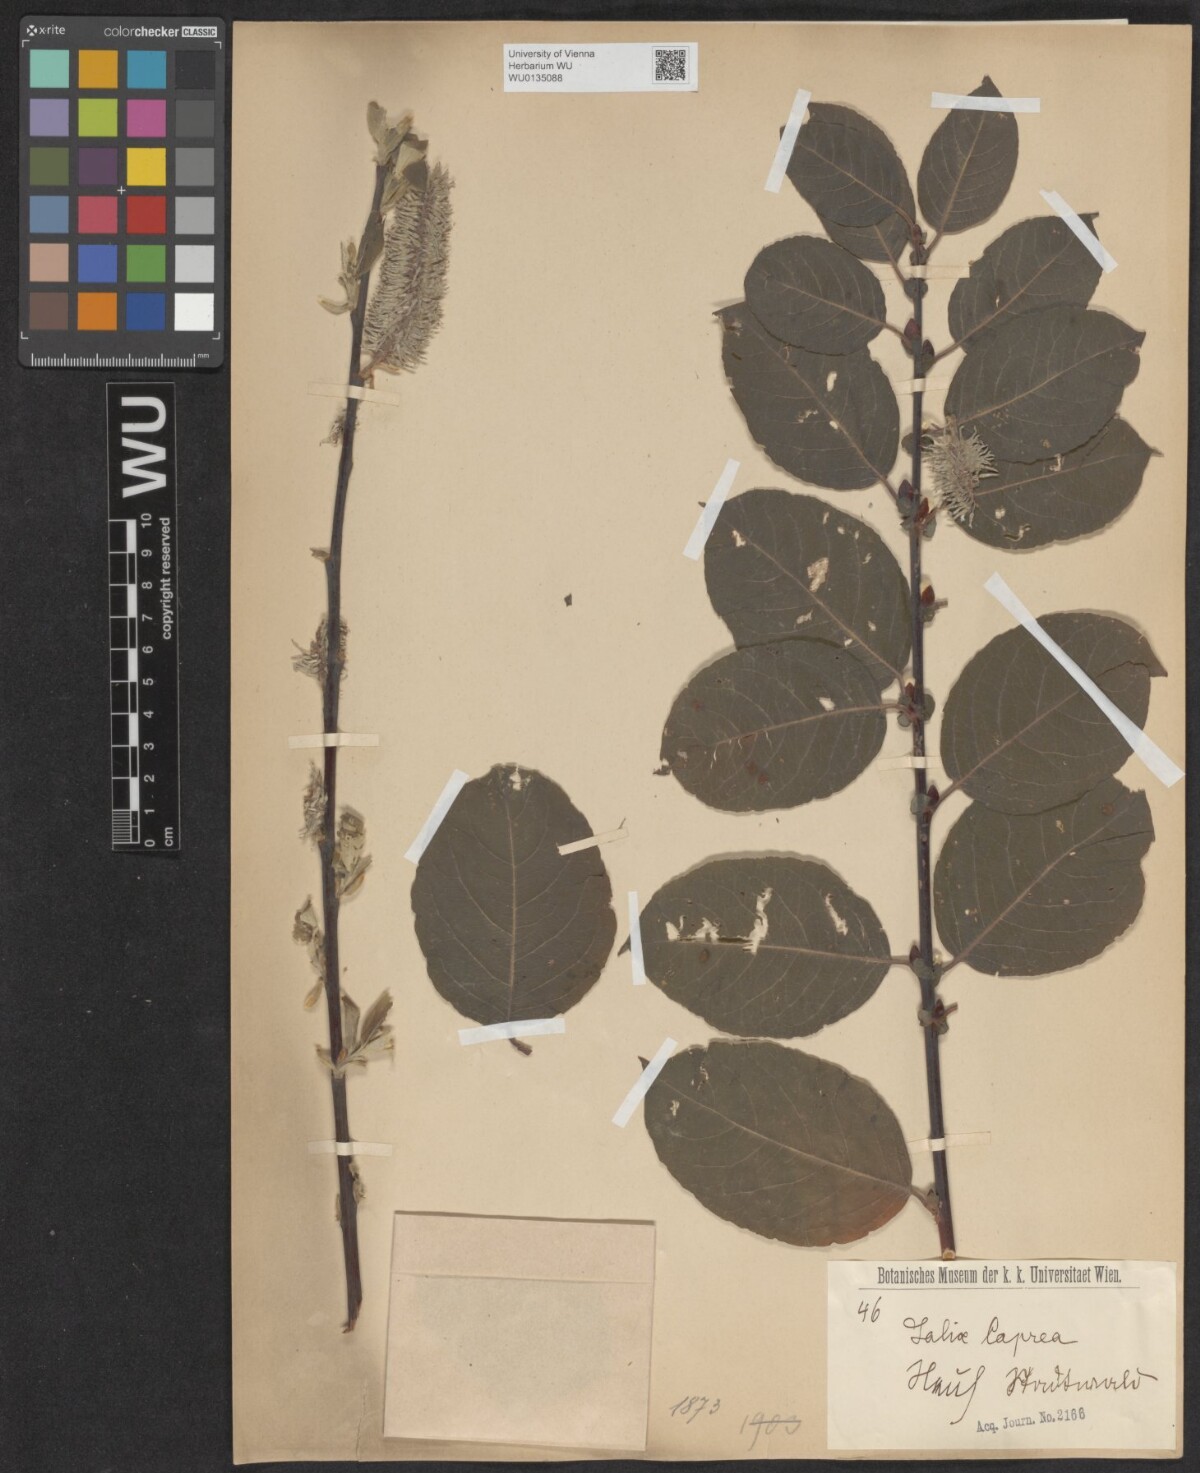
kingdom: Plantae
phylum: Tracheophyta
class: Magnoliopsida
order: Malpighiales
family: Salicaceae
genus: Salix
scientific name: Salix caprea
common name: Goat willow
